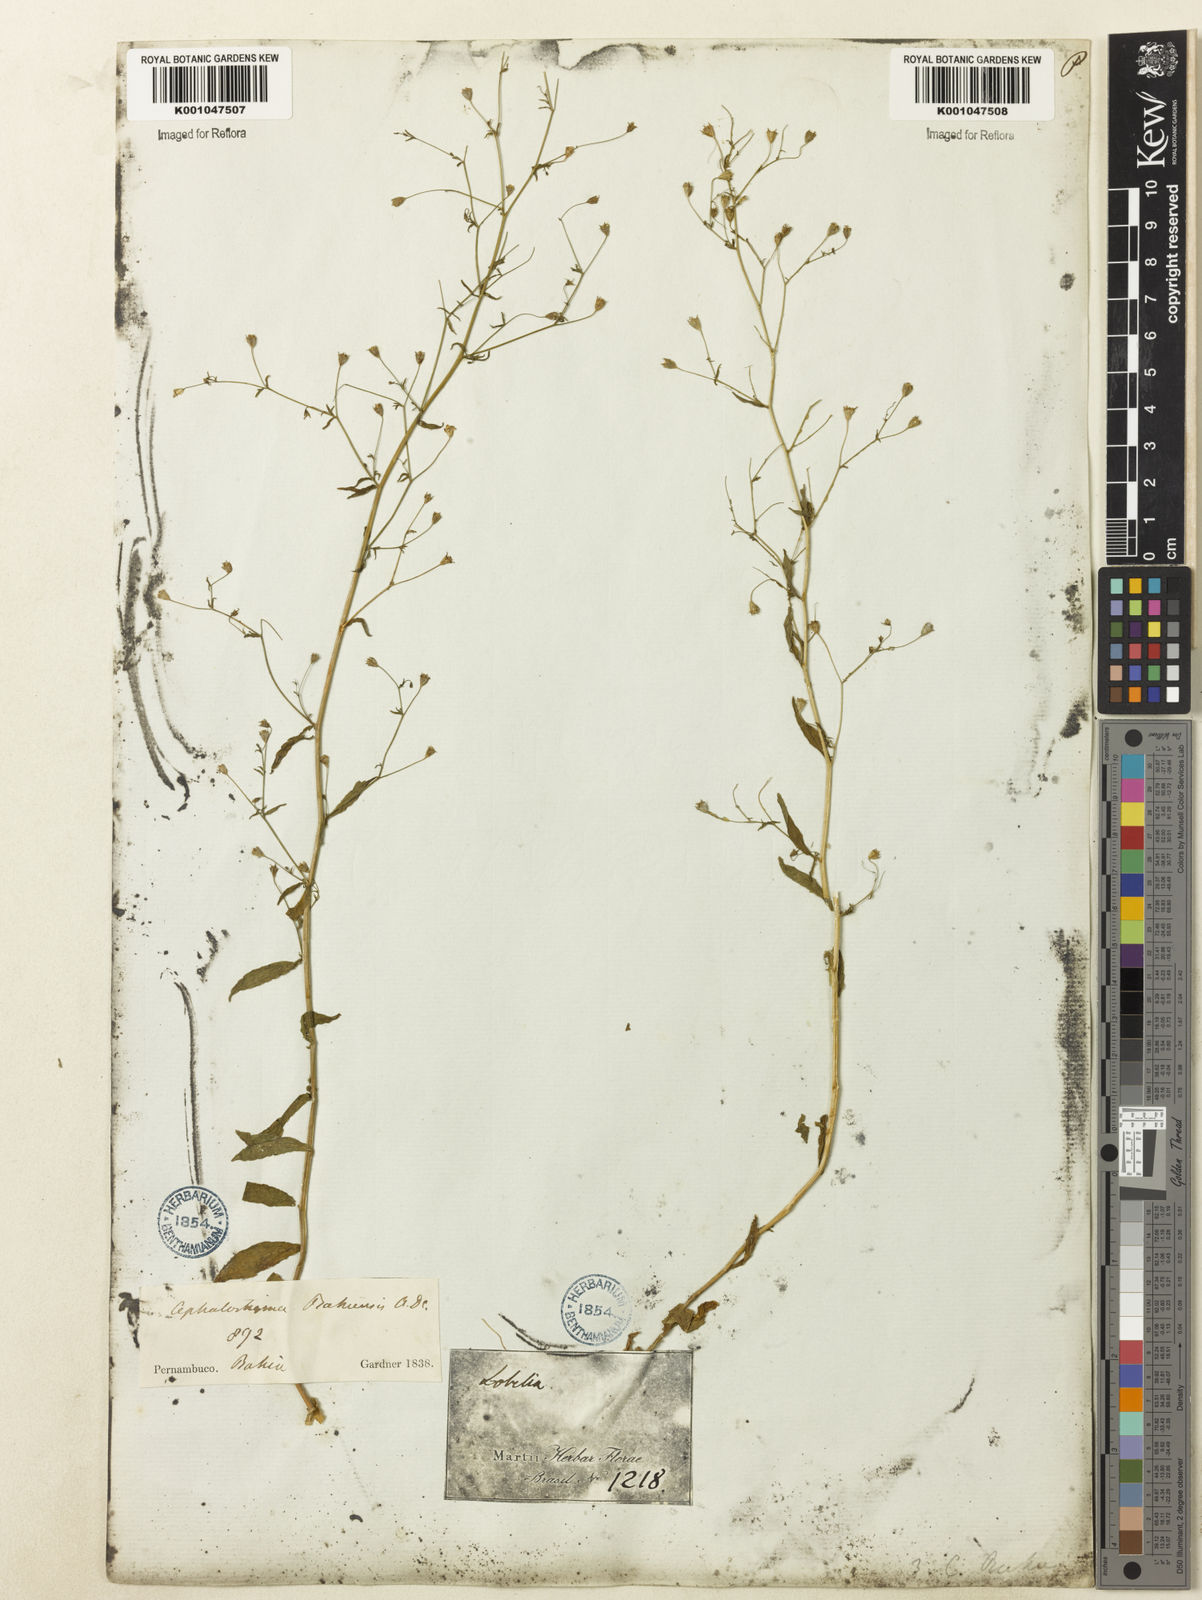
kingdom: Plantae
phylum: Tracheophyta
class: Magnoliopsida
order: Asterales
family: Campanulaceae
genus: Wahlenbergia
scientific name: Wahlenbergia perrottetii
